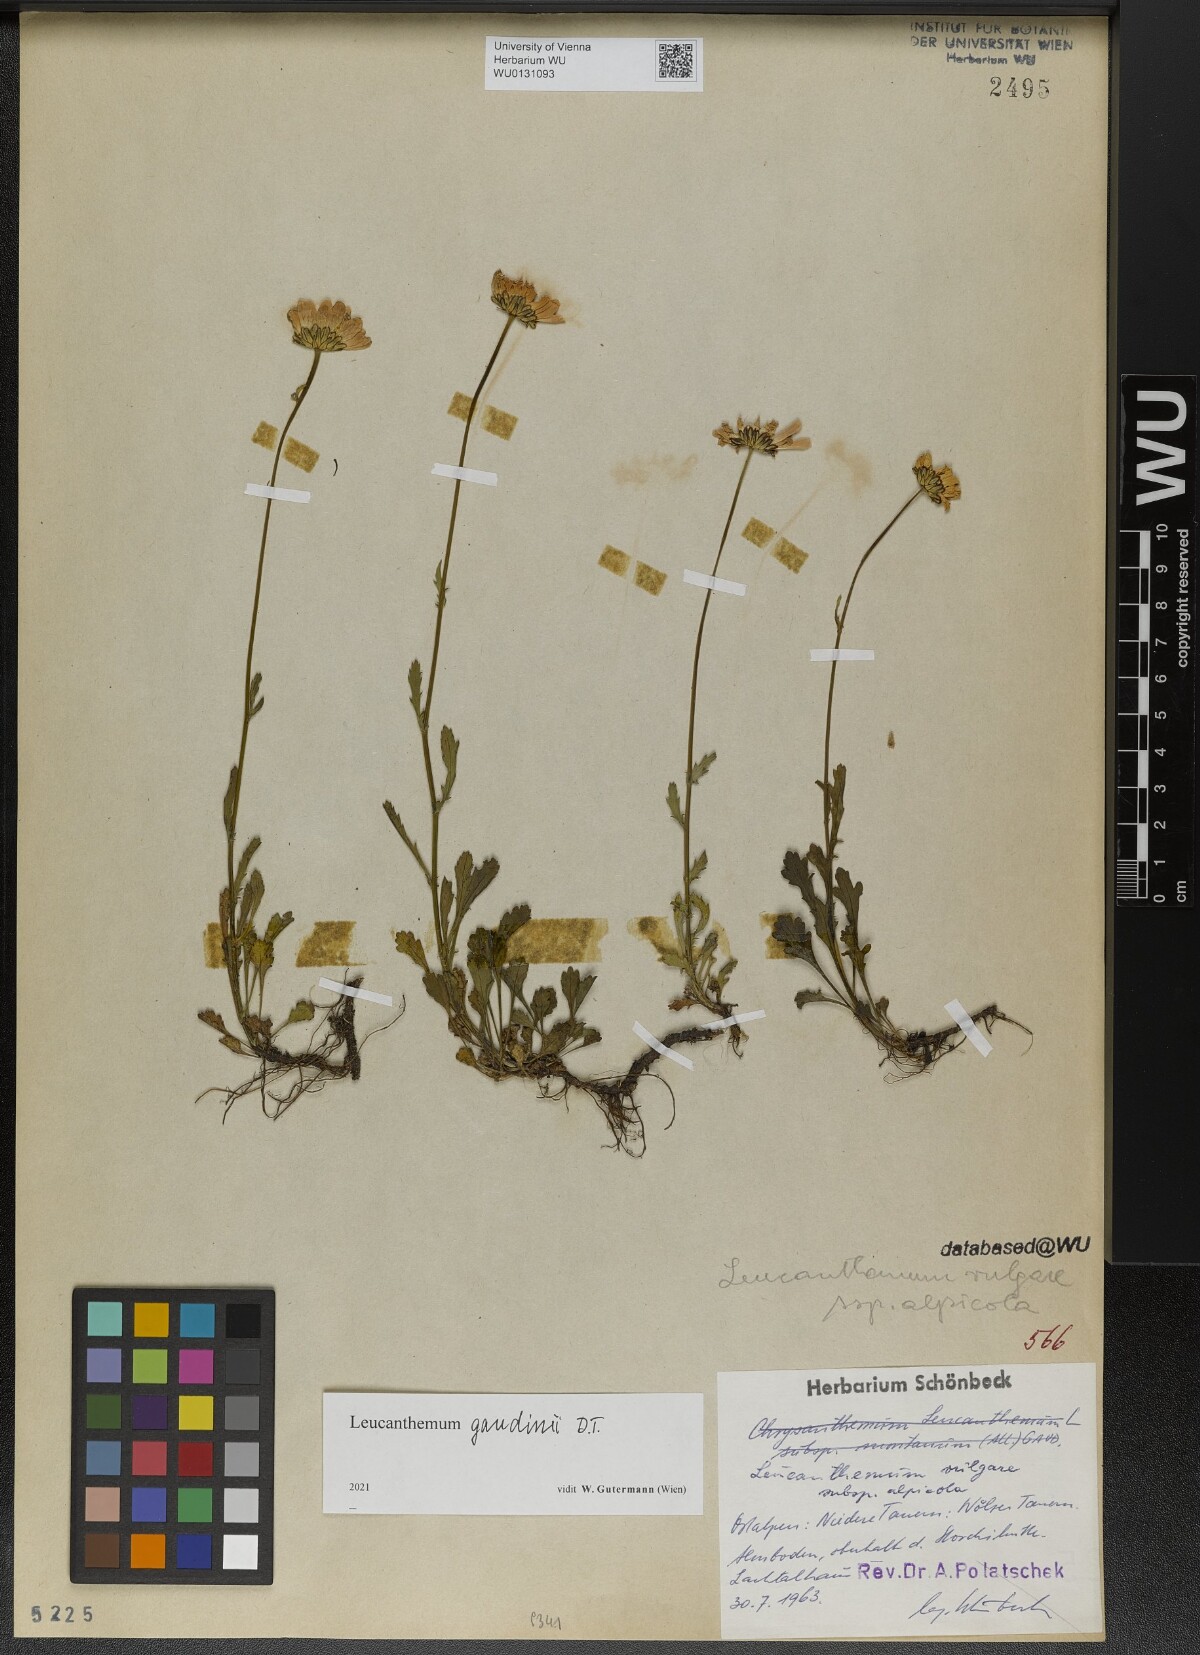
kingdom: Plantae
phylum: Tracheophyta
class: Magnoliopsida
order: Asterales
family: Asteraceae
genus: Leucanthemum
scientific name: Leucanthemum gaudinii
